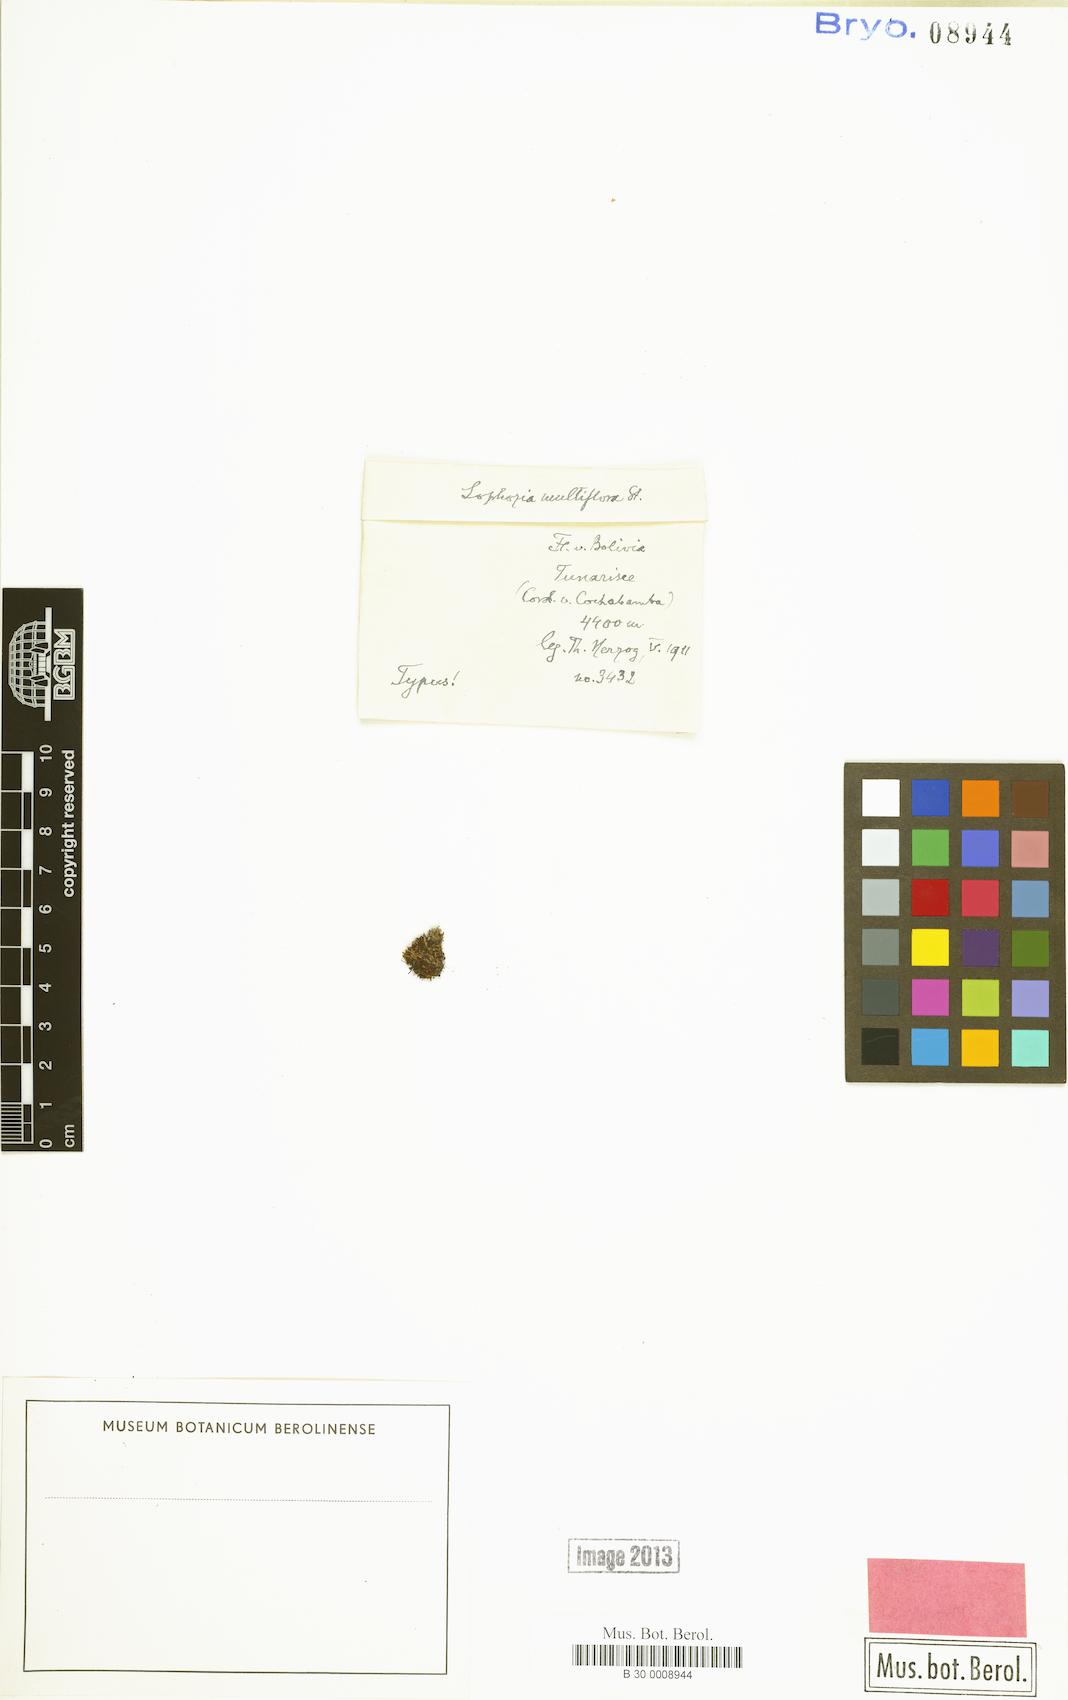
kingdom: Plantae
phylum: Marchantiophyta
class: Jungermanniopsida
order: Jungermanniales
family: Cephaloziellaceae
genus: Gymnocoleopsis
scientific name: Gymnocoleopsis cylindriformis
